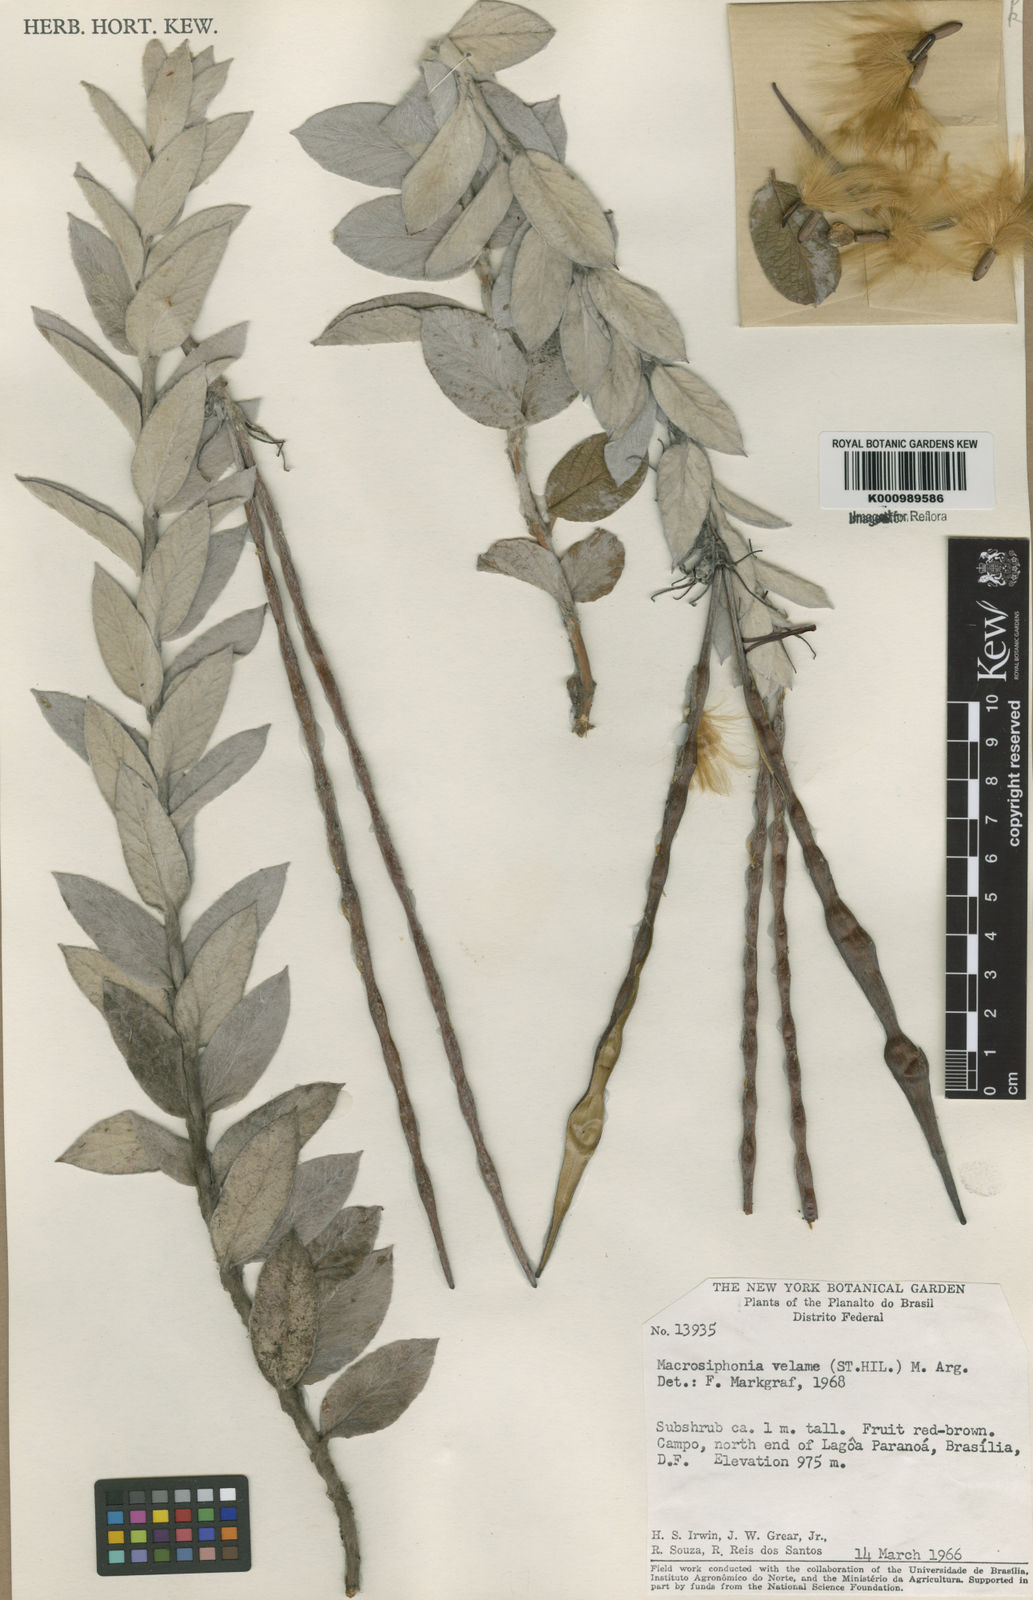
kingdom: Plantae
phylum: Tracheophyta
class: Magnoliopsida
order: Gentianales
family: Apocynaceae
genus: Mandevilla
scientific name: Mandevilla velame
